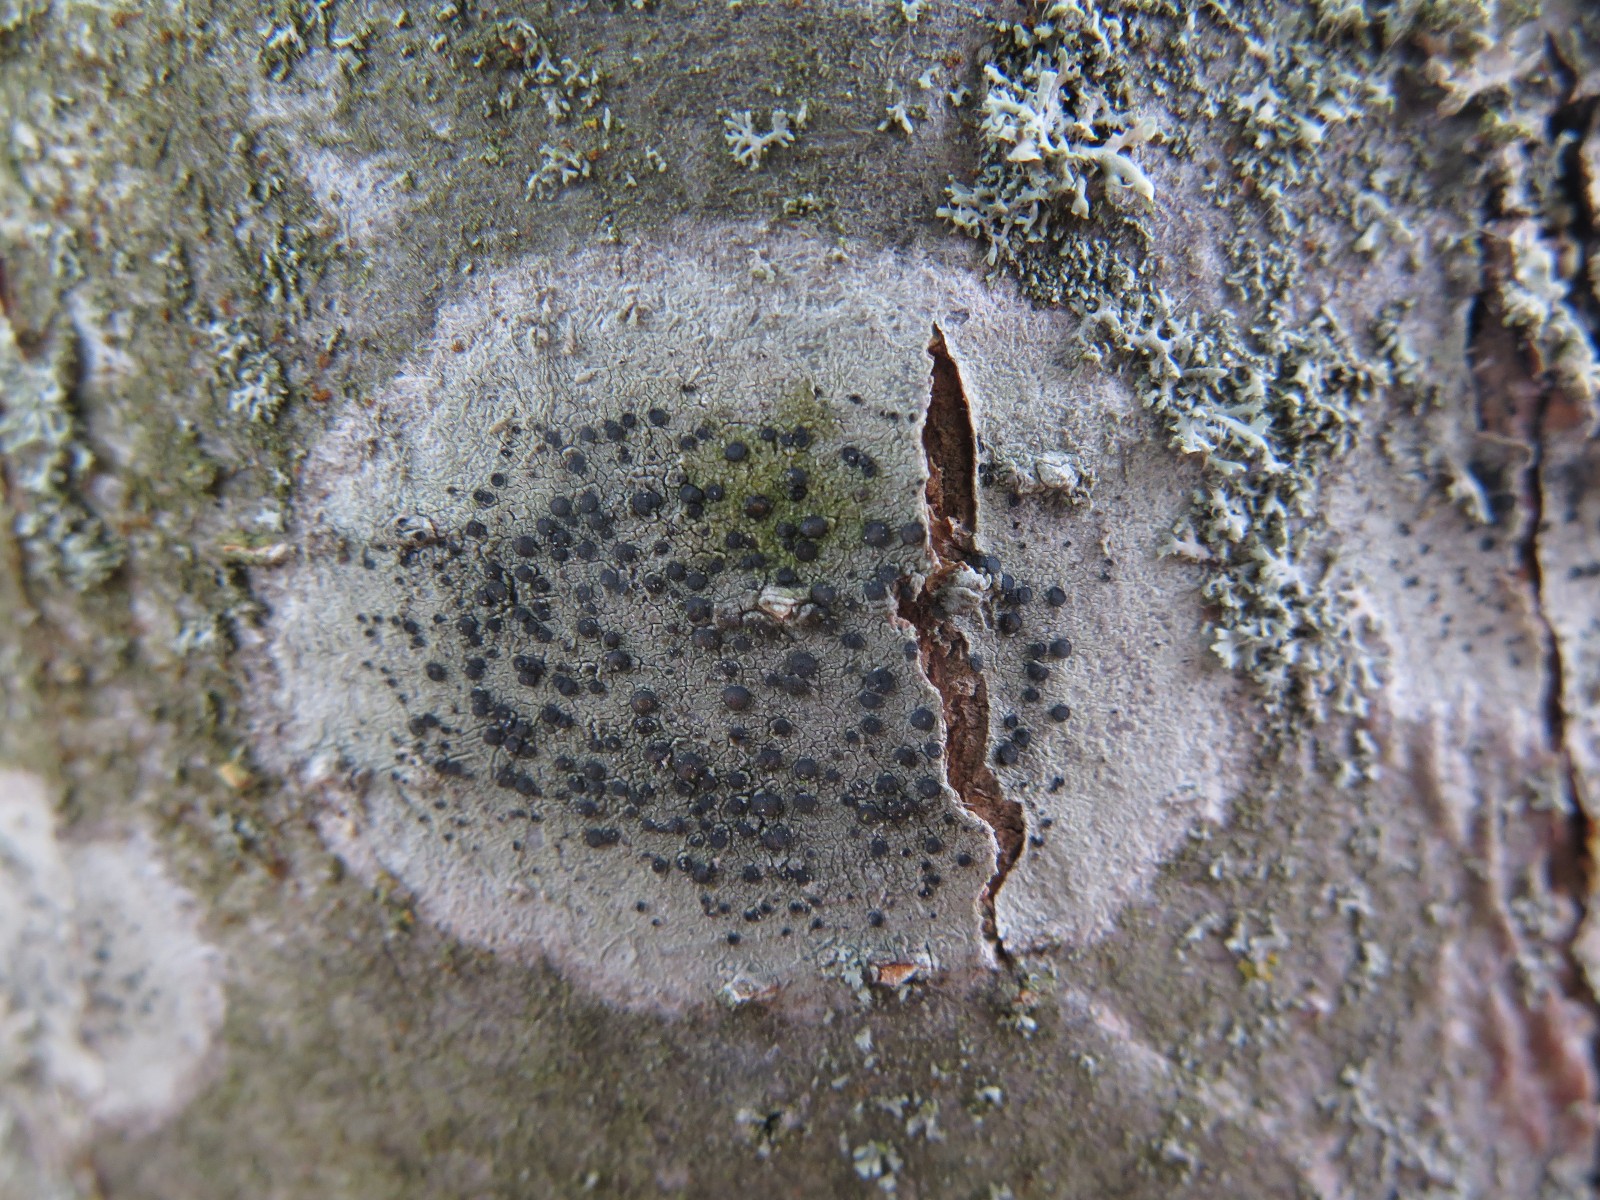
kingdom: Fungi
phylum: Ascomycota
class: Lecanoromycetes
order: Lecanorales
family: Lecanoraceae
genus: Lecidella
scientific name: Lecidella elaeochroma
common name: grågrøn skivelav
